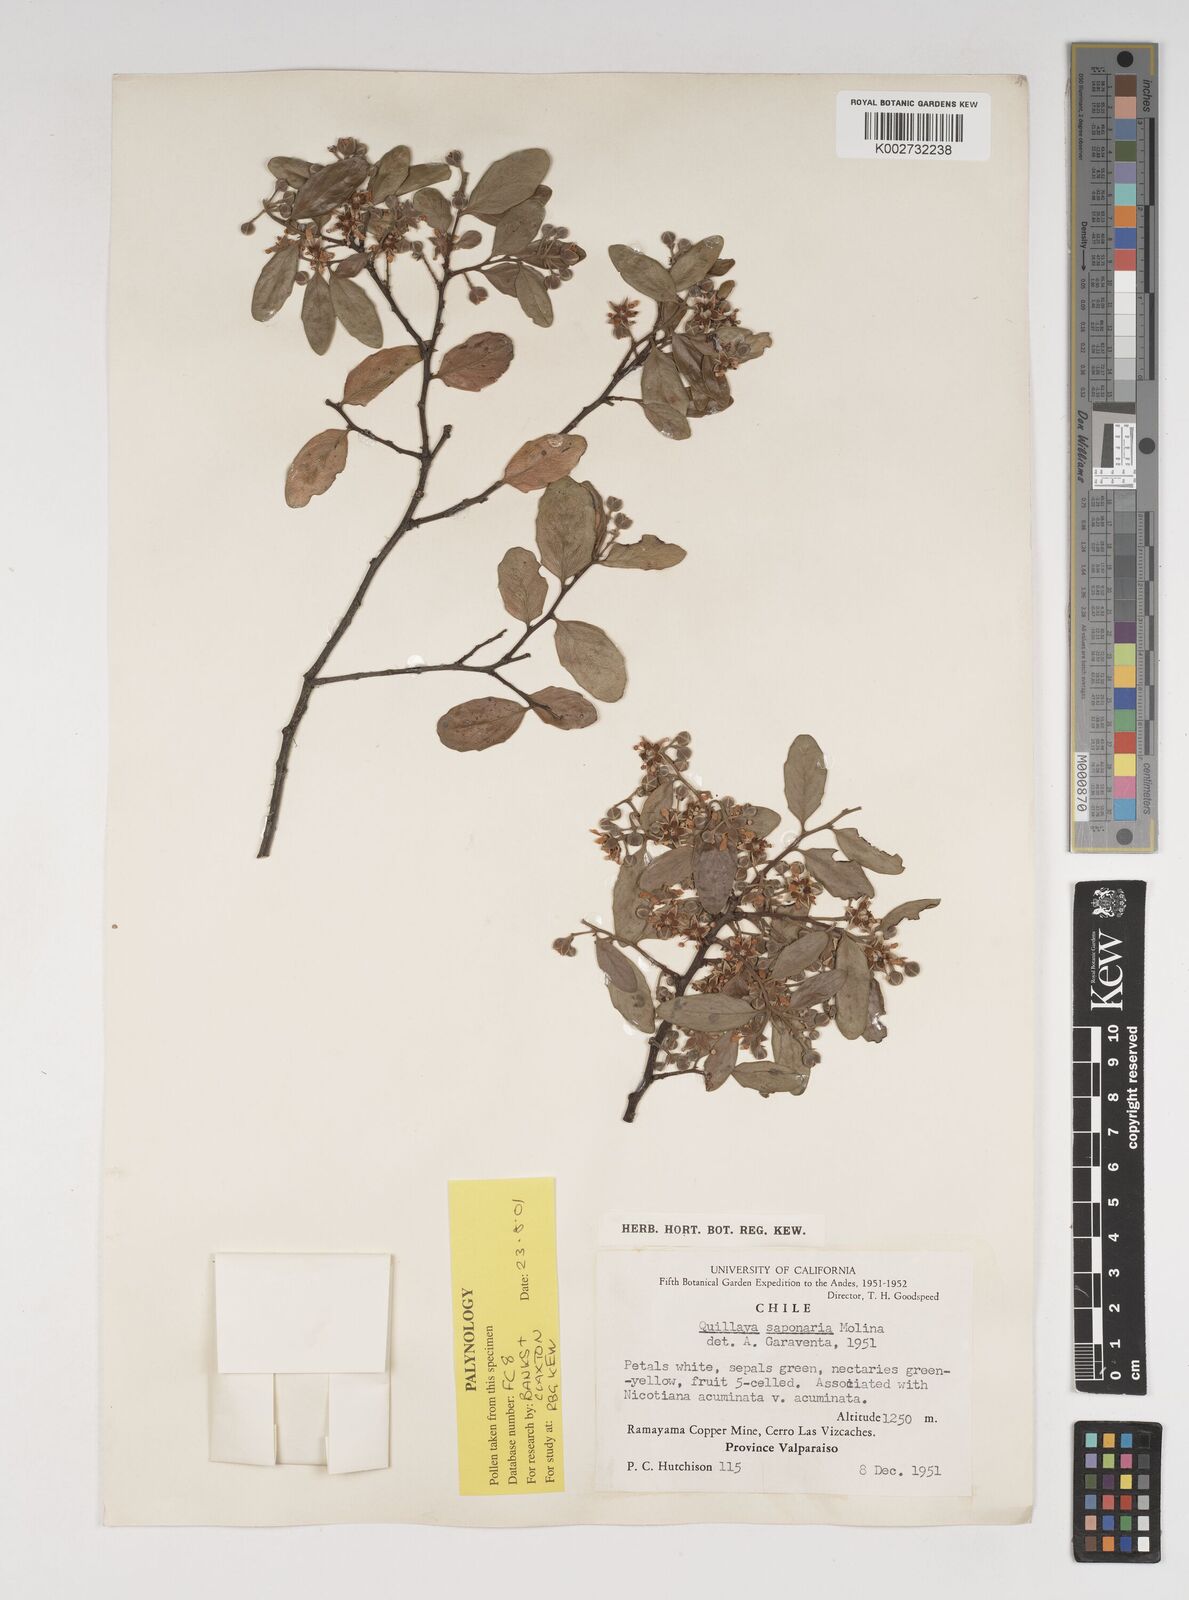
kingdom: Plantae
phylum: Tracheophyta
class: Magnoliopsida
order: Fabales
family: Quillajaceae
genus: Quillaja
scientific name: Quillaja saponaria
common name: Murillo's-bark
